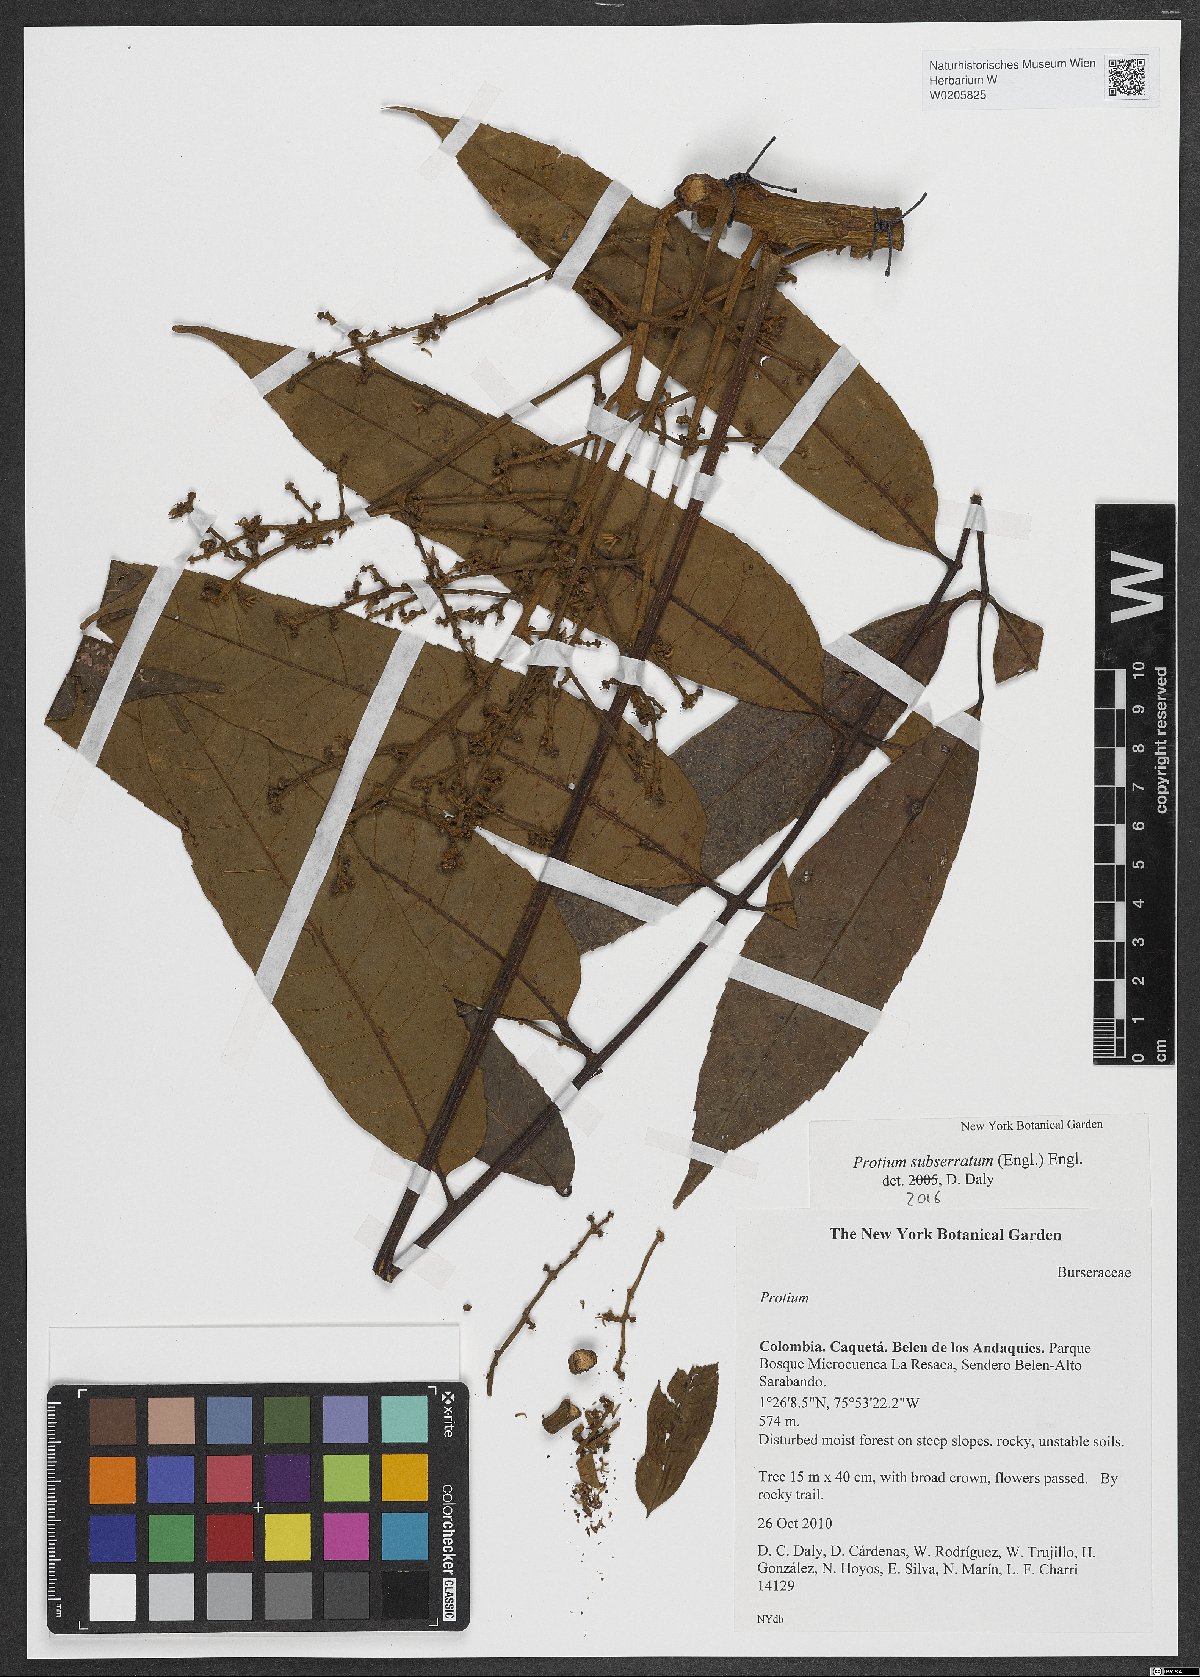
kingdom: Plantae
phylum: Tracheophyta
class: Magnoliopsida
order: Sapindales
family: Burseraceae
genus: Protium
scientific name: Protium subserratum
